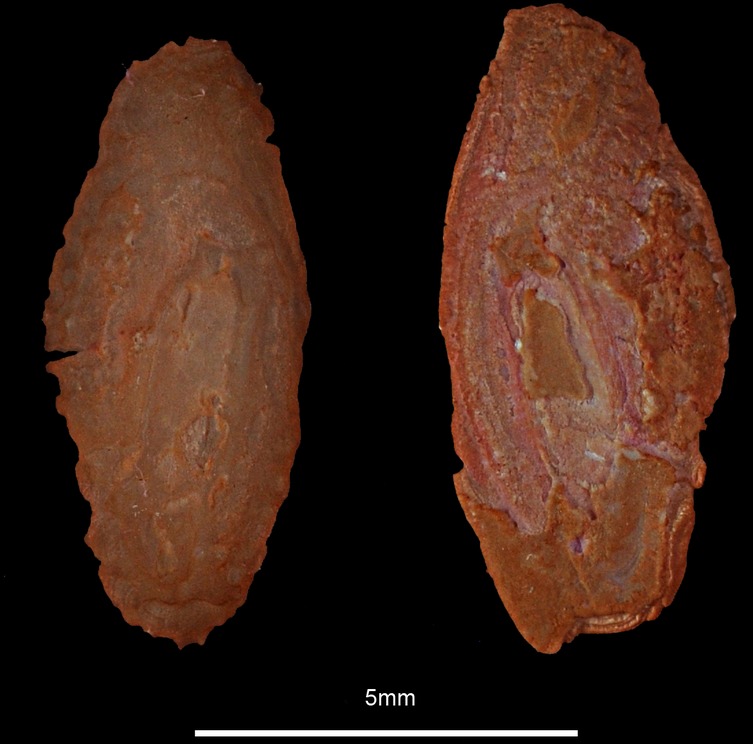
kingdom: Animalia
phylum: Chordata
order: Anguilliformes
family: Congridae
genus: Conger
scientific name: Conger conger
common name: Conger eel
